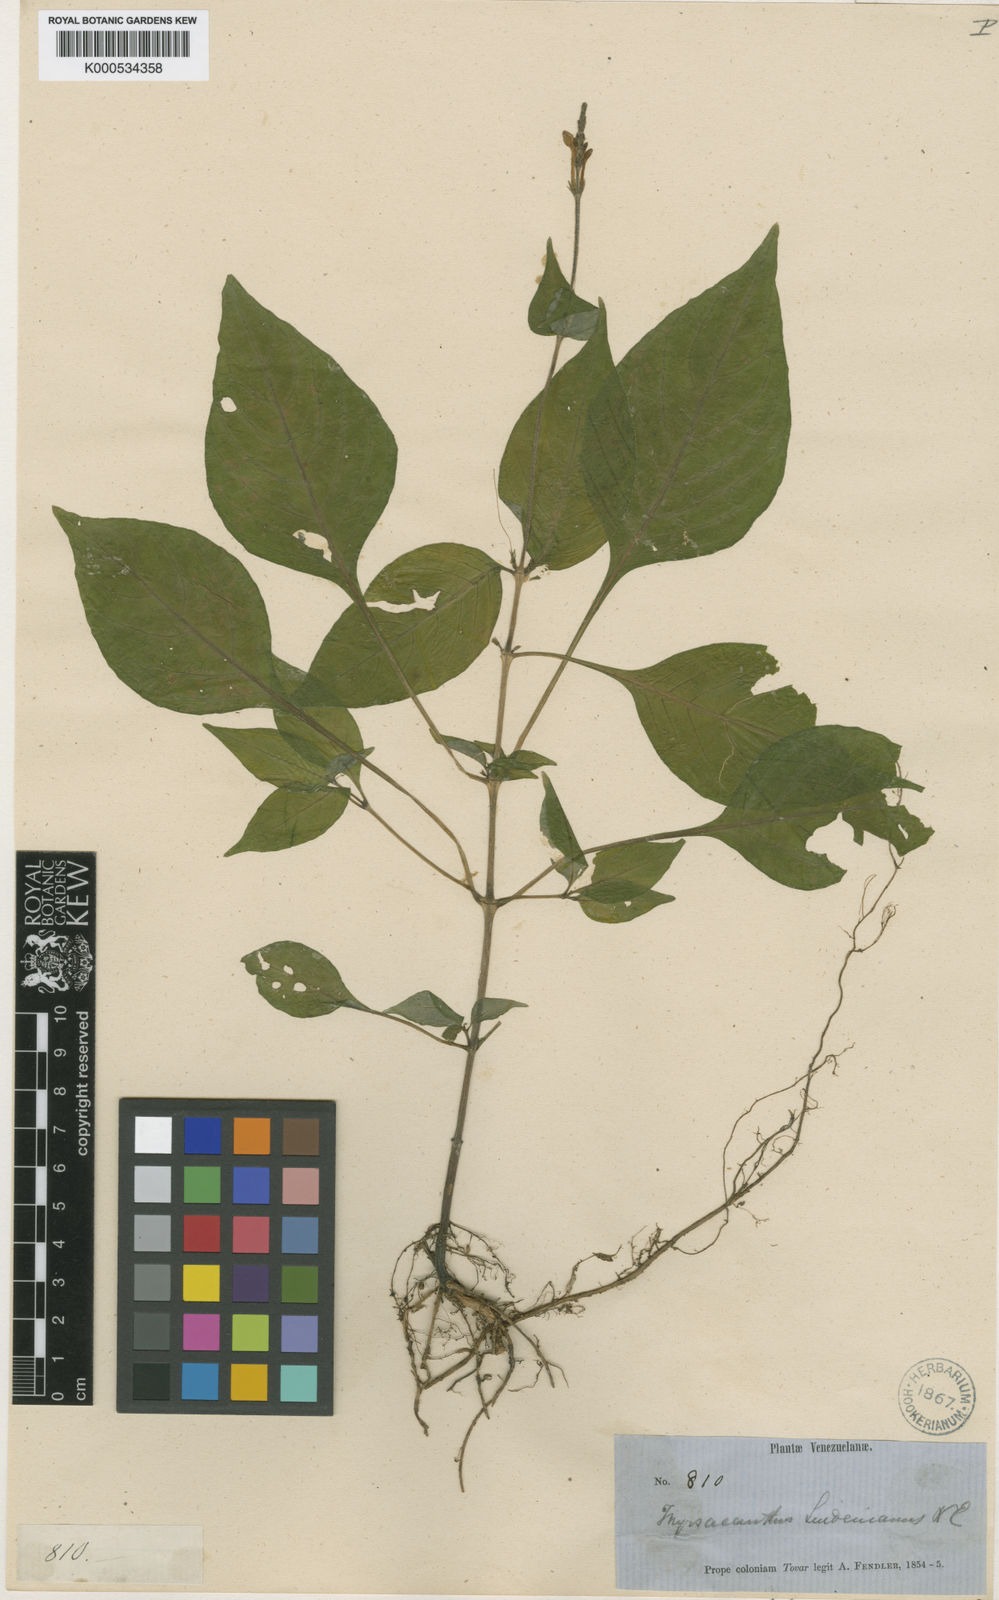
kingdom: Plantae
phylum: Tracheophyta
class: Magnoliopsida
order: Lamiales
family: Acanthaceae
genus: Pseuderanthemum
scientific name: Pseuderanthemum
